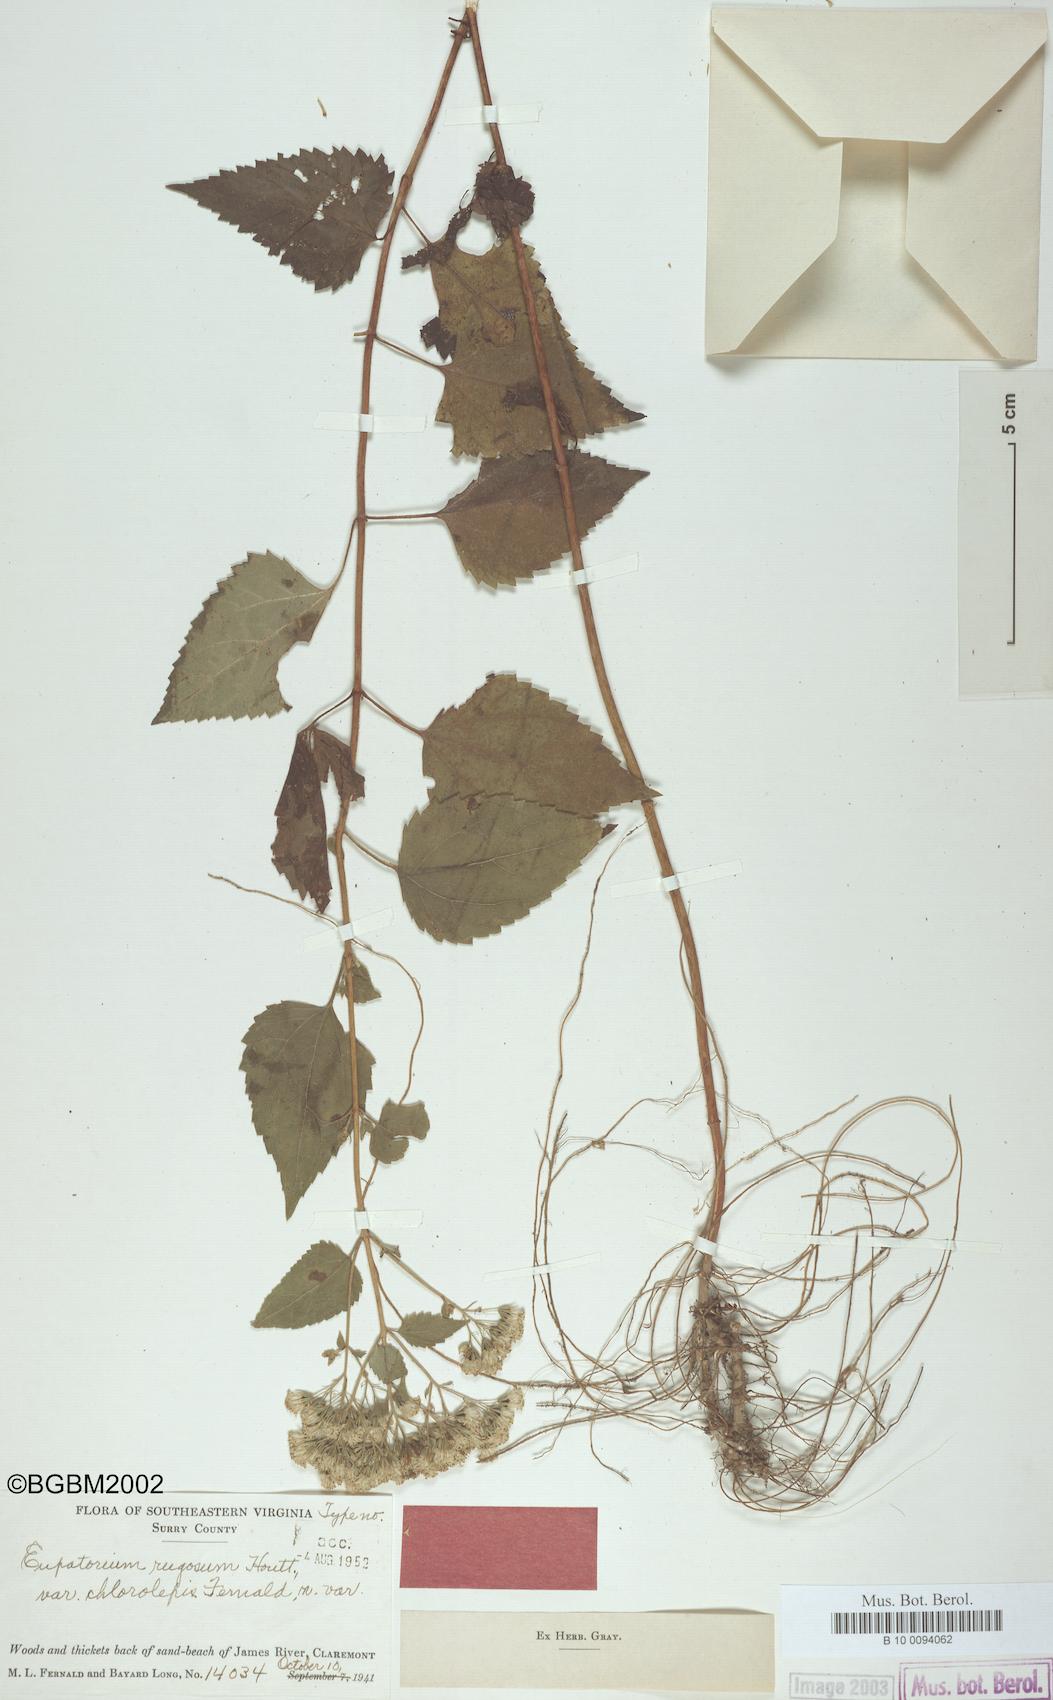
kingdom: Plantae
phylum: Tracheophyta
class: Magnoliopsida
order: Asterales
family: Asteraceae
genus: Ageratina
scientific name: Ageratina altissima
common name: White snakeroot
